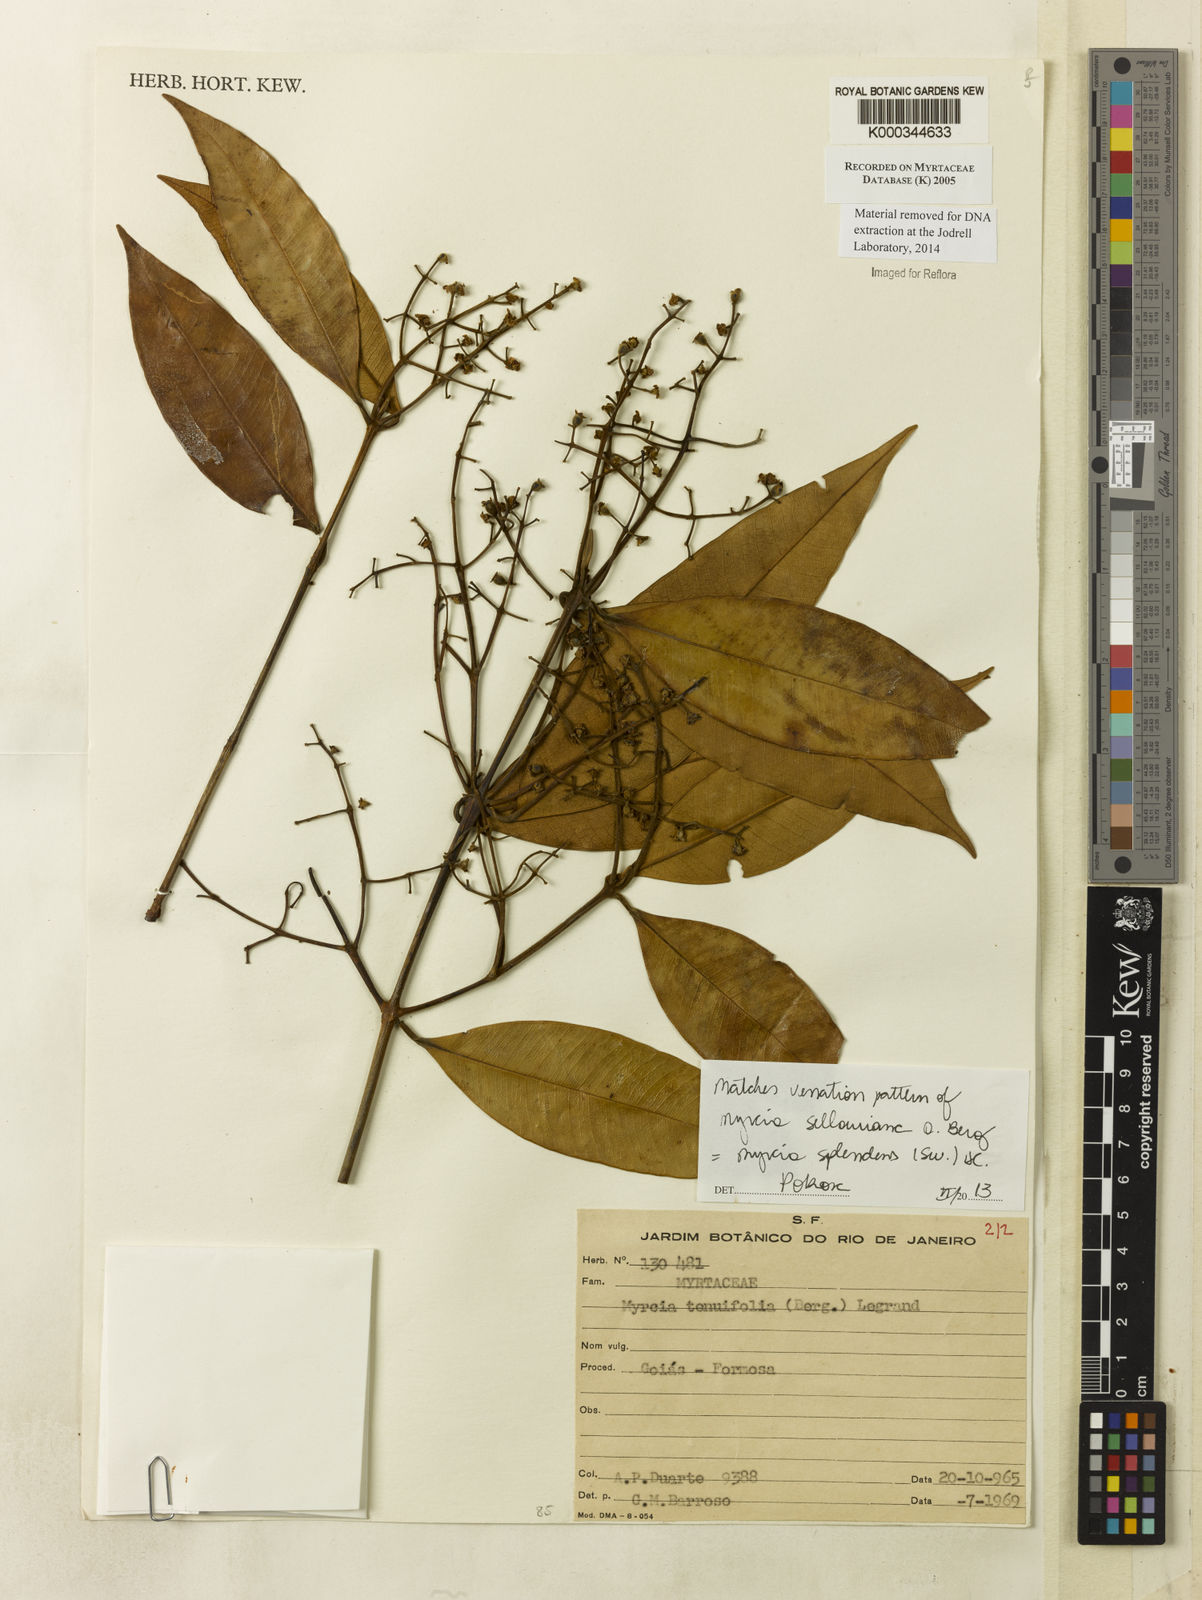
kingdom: Plantae
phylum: Tracheophyta
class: Magnoliopsida
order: Myrtales
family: Myrtaceae
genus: Myrcia
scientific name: Myrcia
